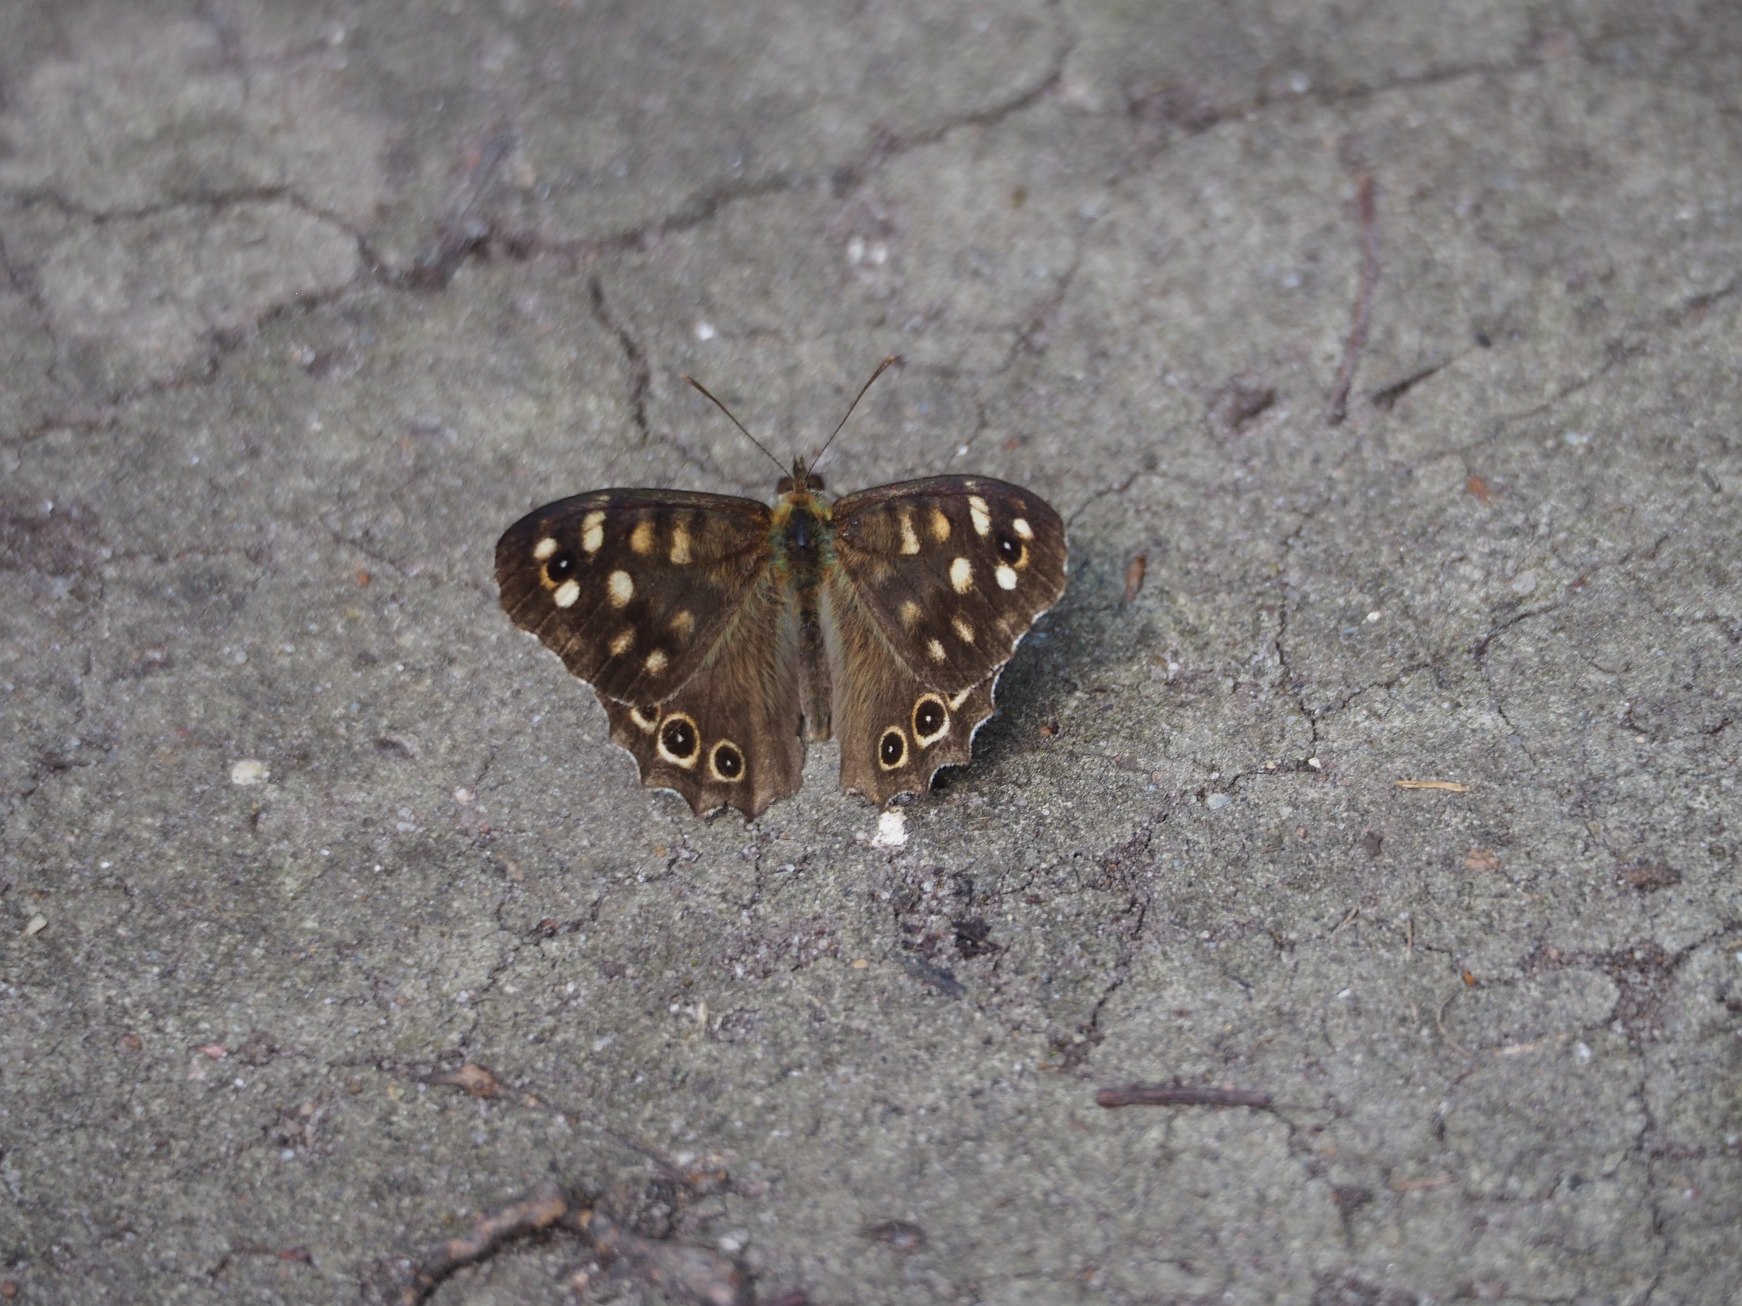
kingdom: Animalia
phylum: Arthropoda
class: Insecta
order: Lepidoptera
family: Nymphalidae
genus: Pararge
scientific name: Pararge aegeria
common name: Skovrandøje
